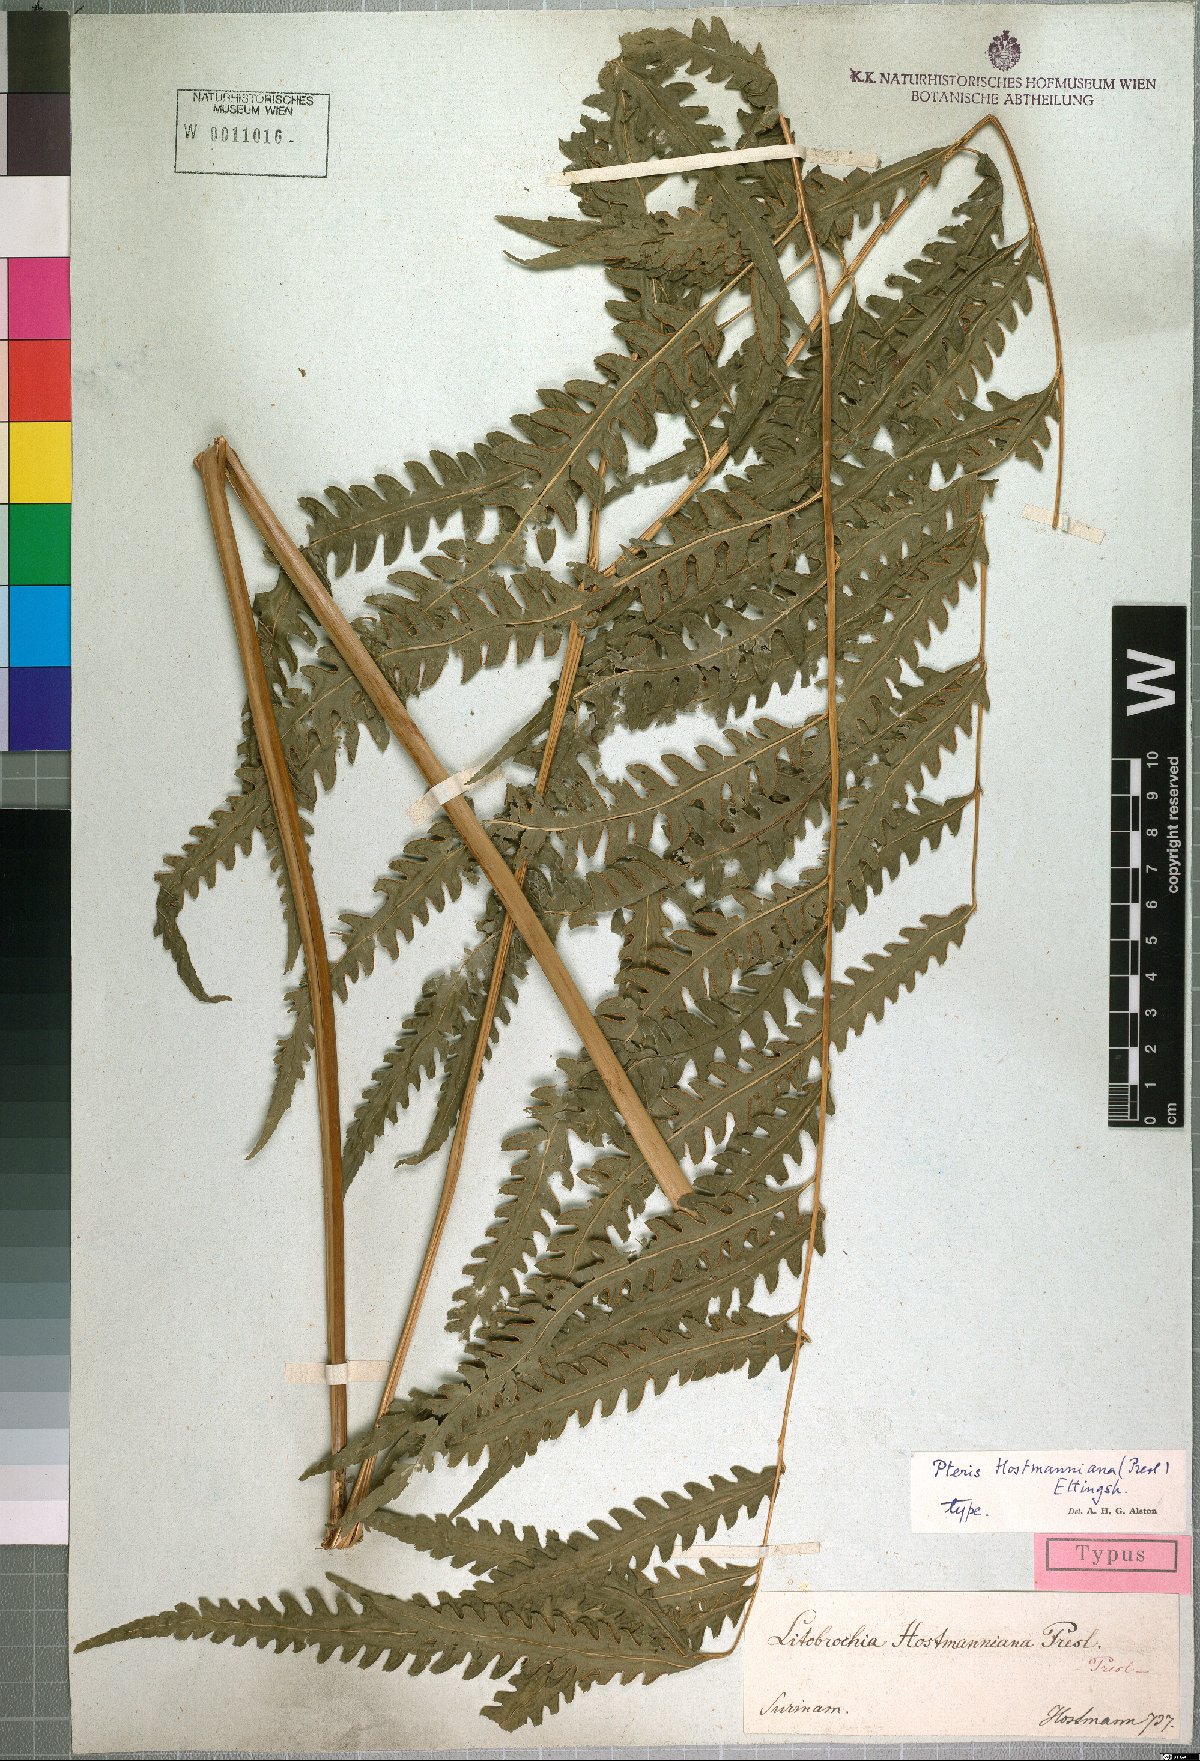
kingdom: Plantae
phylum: Tracheophyta
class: Polypodiopsida
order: Polypodiales
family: Pteridaceae
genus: Pteris
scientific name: Pteris propinqua
